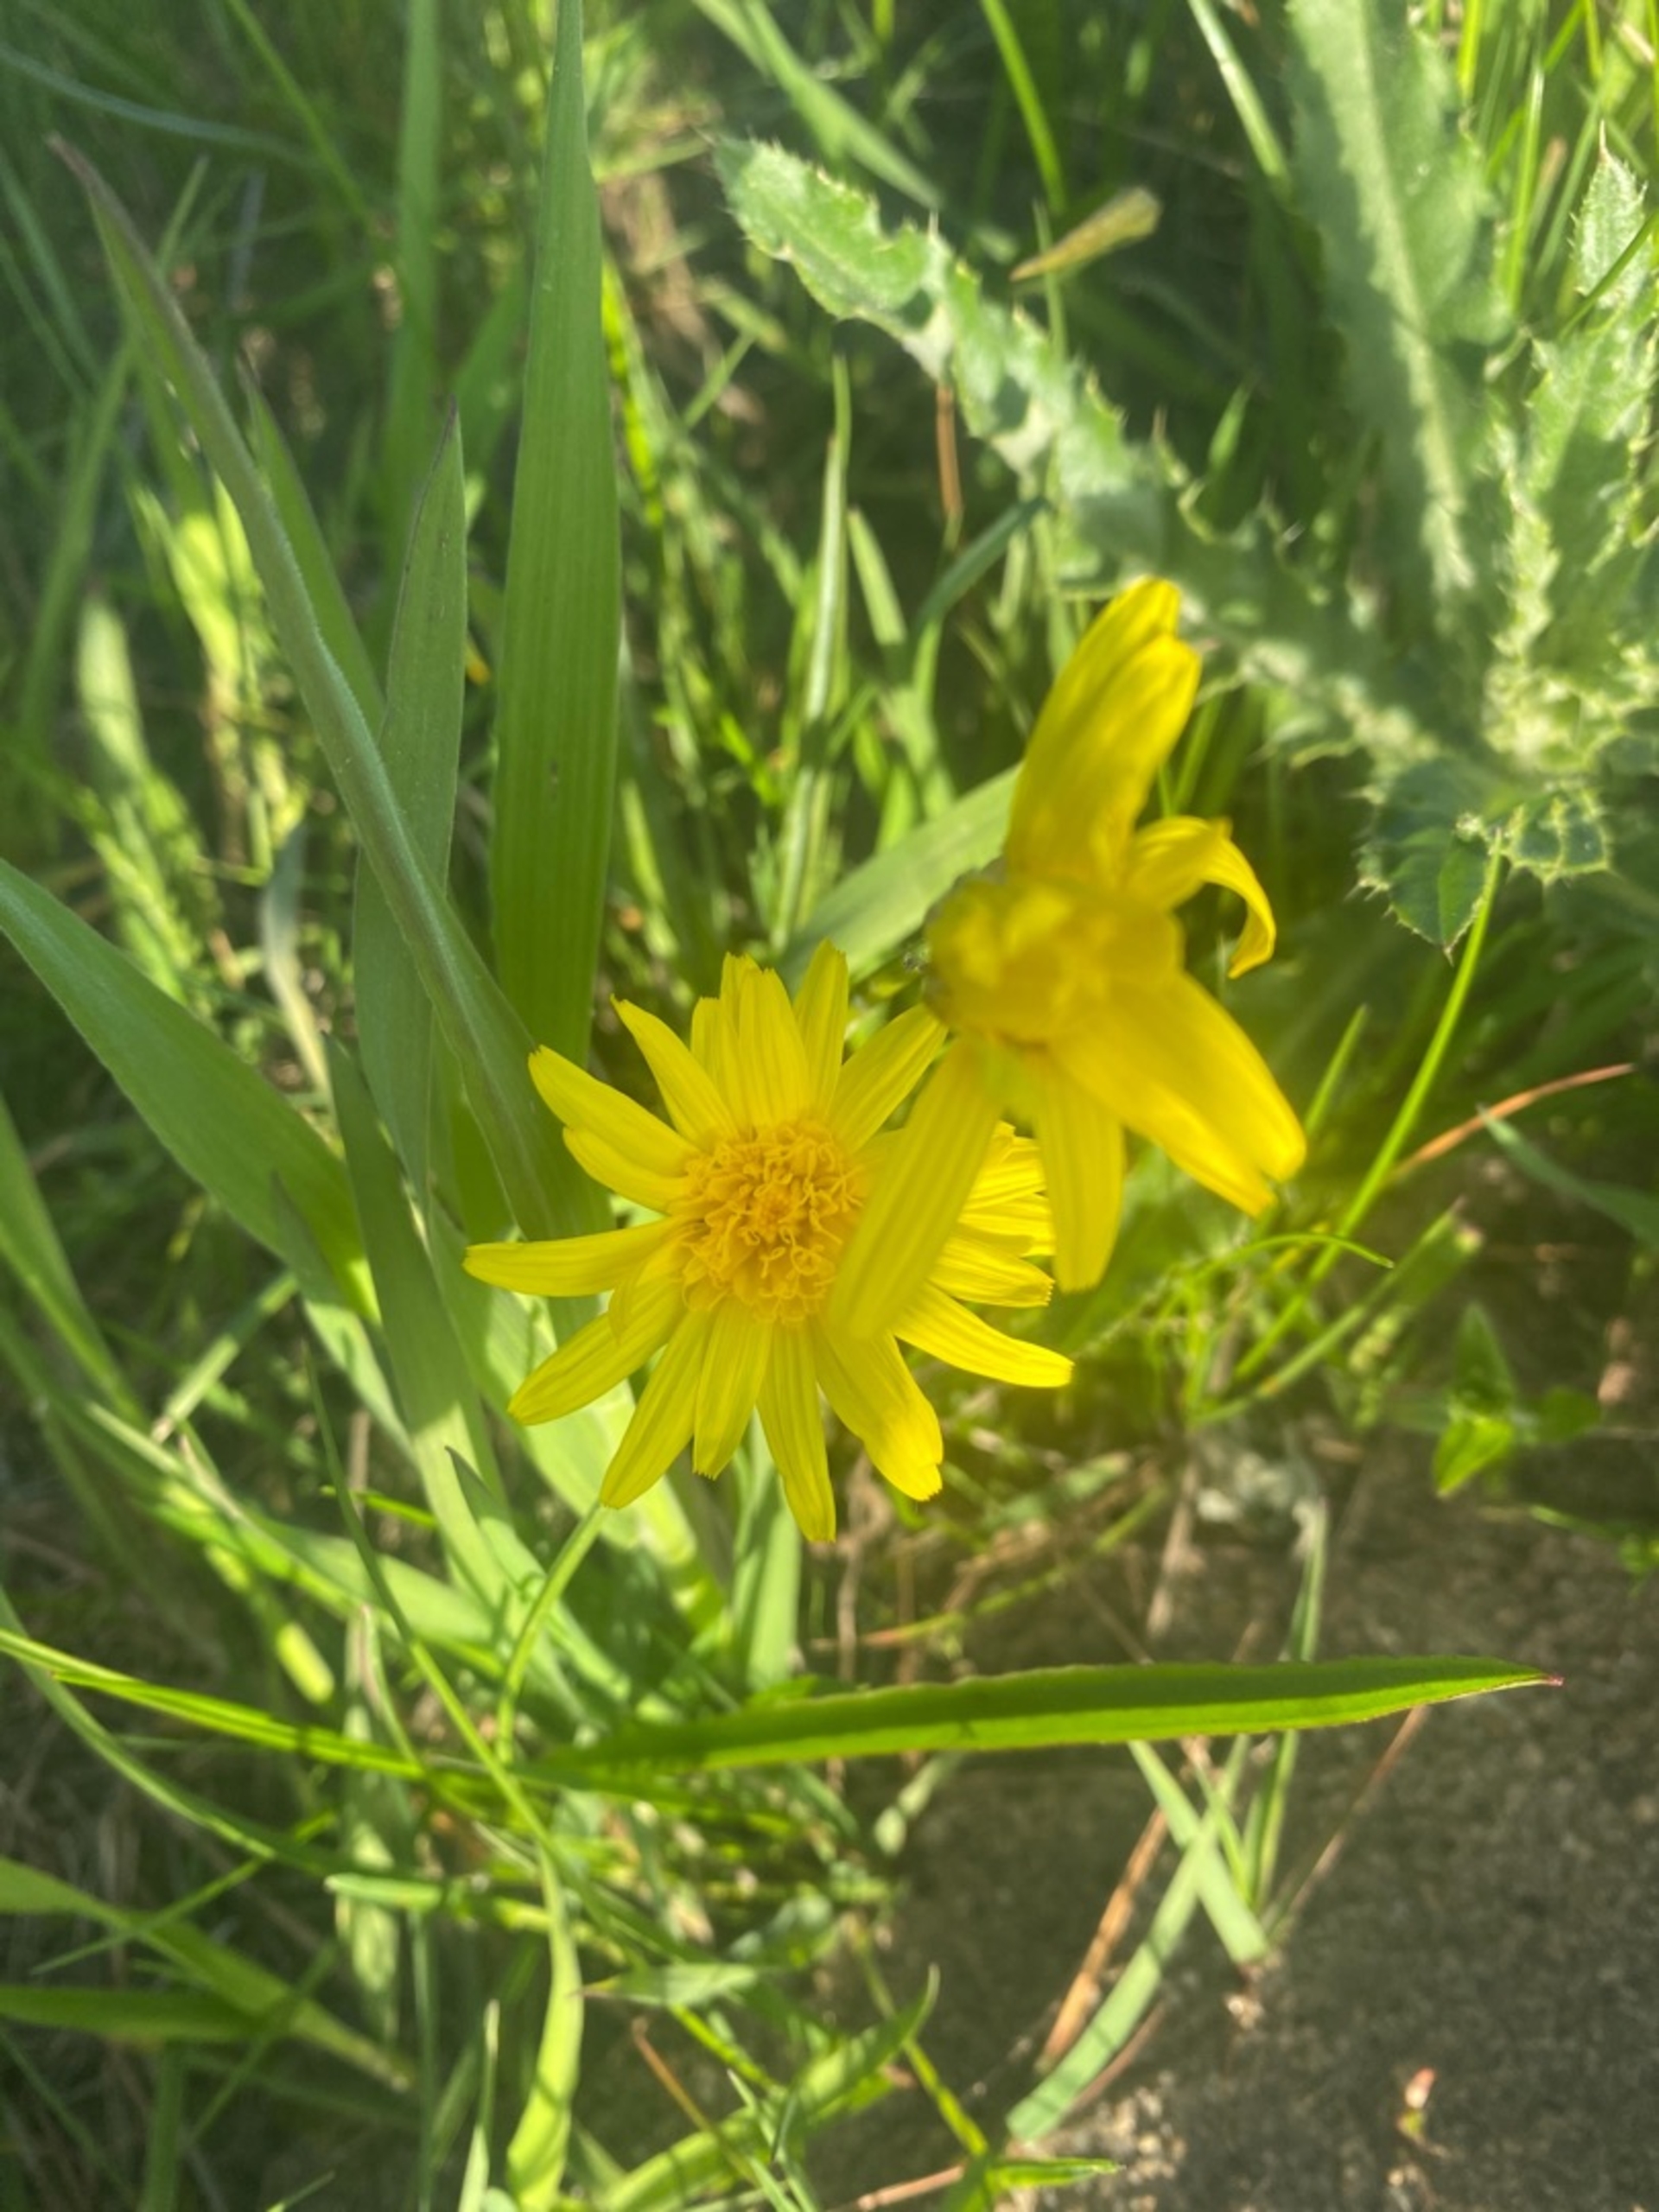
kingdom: Plantae
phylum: Tracheophyta
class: Magnoliopsida
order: Asterales
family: Asteraceae
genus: Scorzonera
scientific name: Scorzonera humilis
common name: Lav skorsoner
